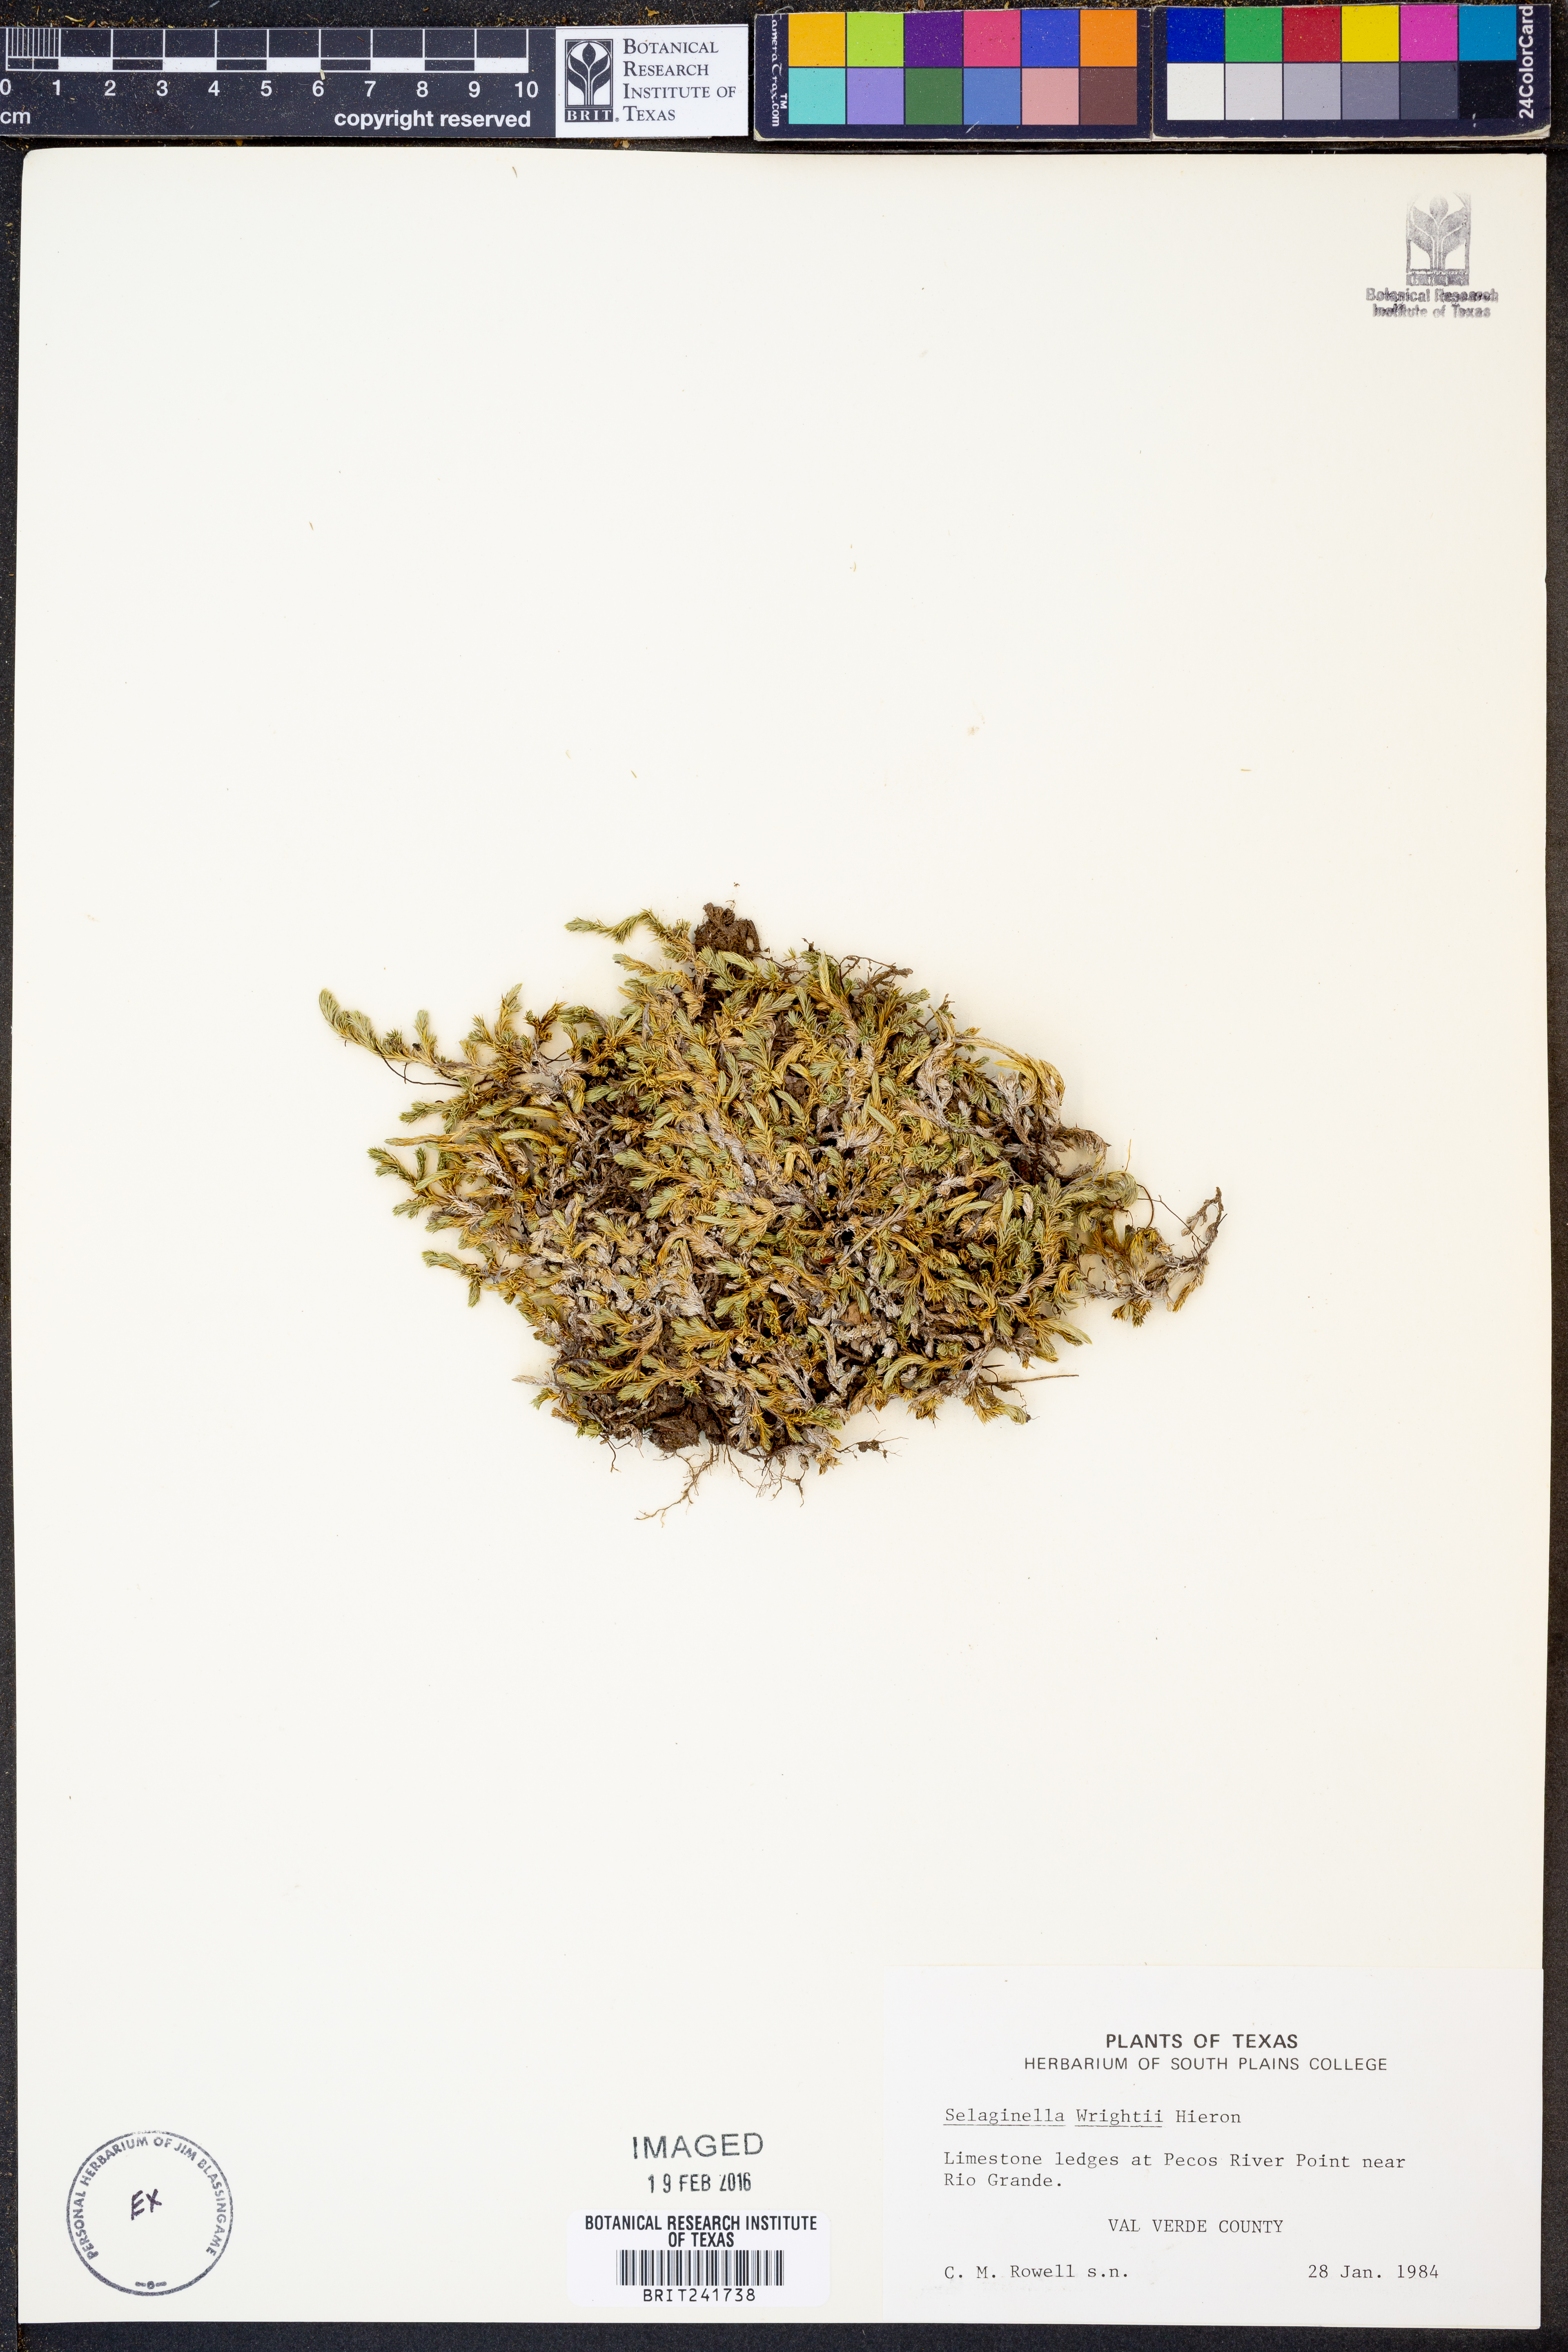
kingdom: Plantae
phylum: Tracheophyta
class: Lycopodiopsida
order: Selaginellales
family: Selaginellaceae
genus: Selaginella
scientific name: Selaginella wrightii
